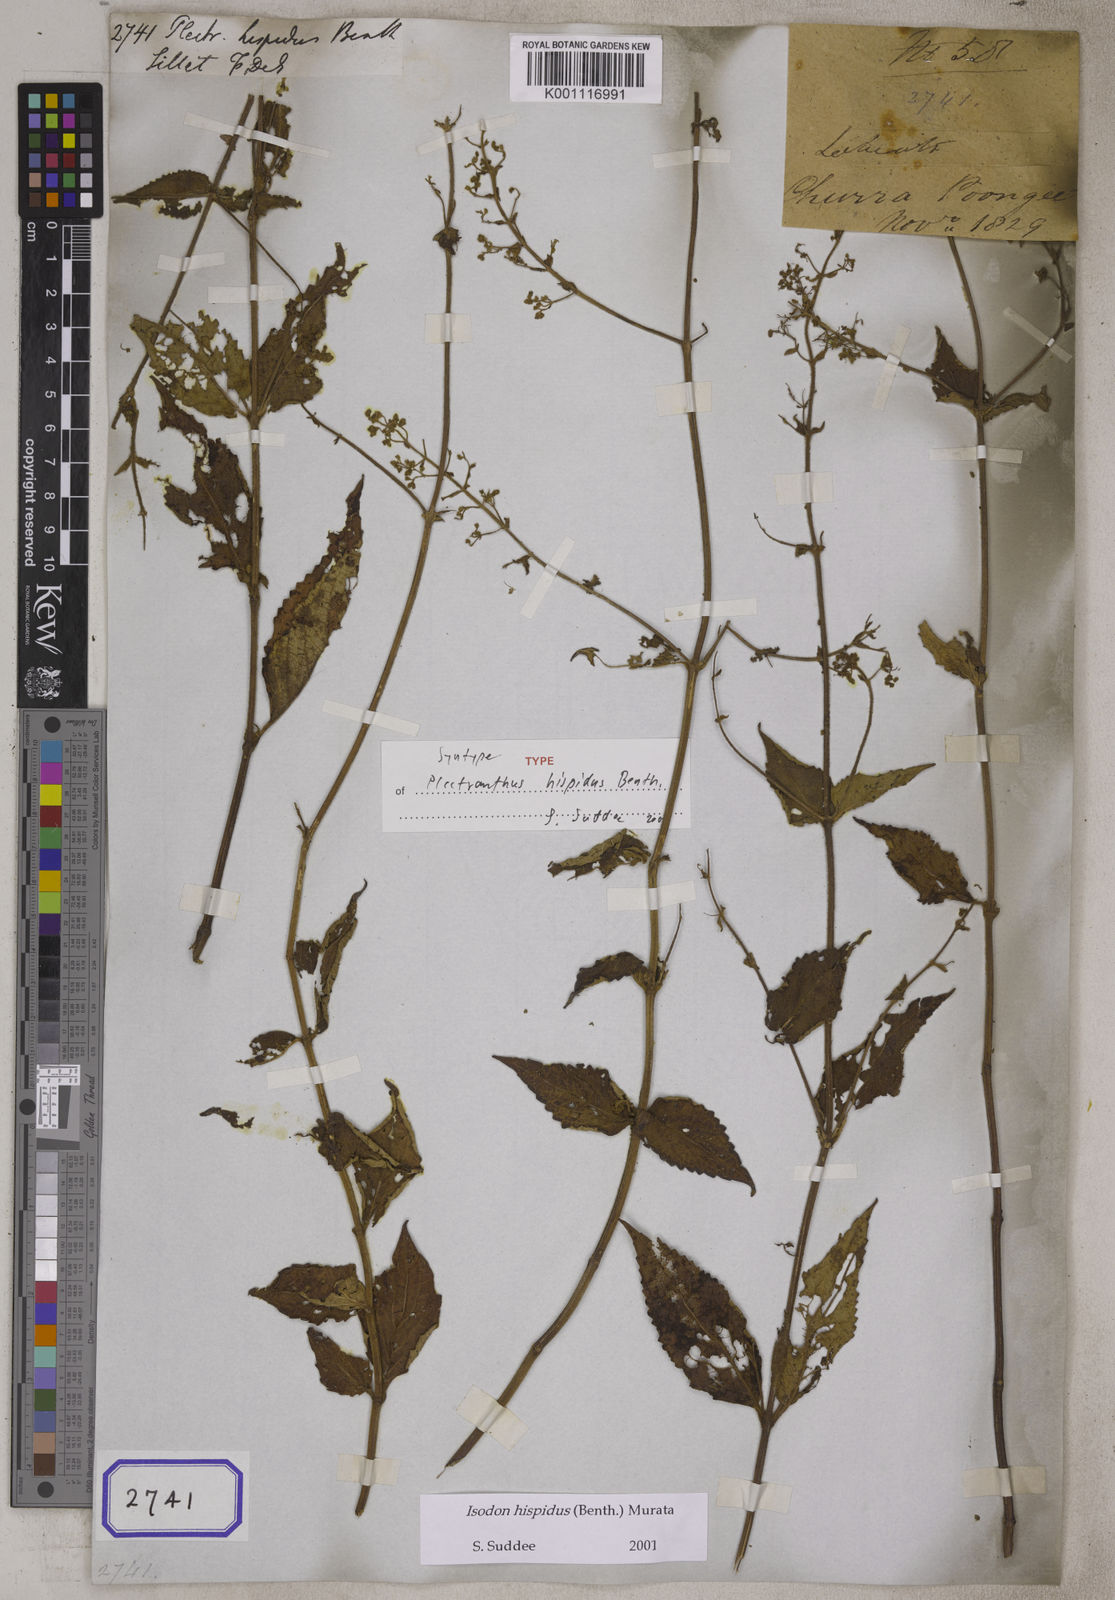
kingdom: Plantae
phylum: Tracheophyta
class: Magnoliopsida
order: Lamiales
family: Lamiaceae
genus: Isodon
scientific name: Isodon hispidus
